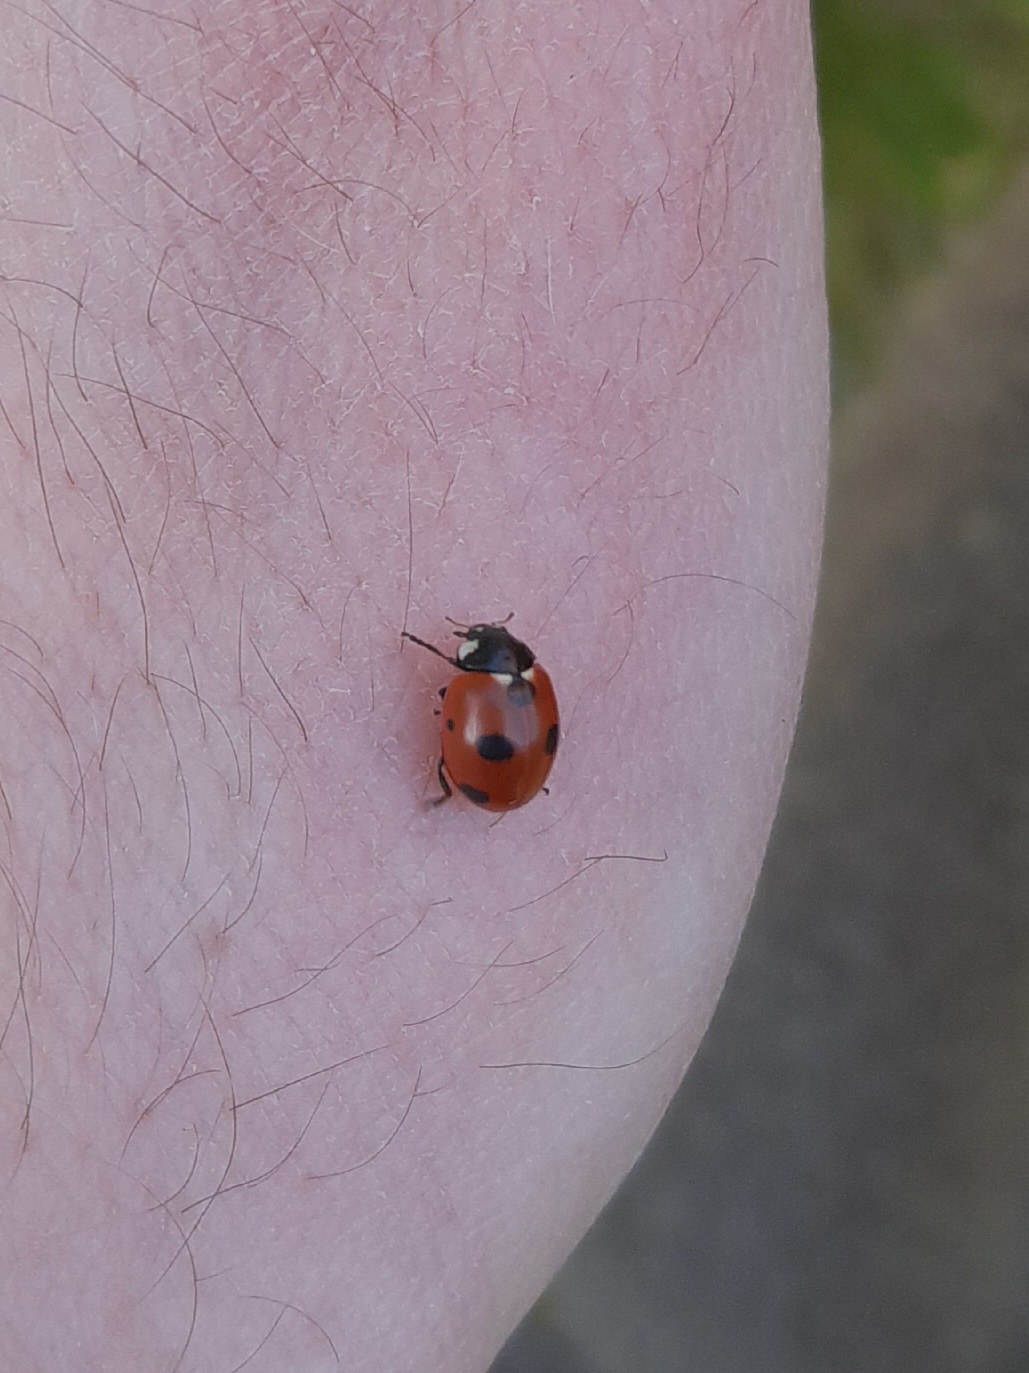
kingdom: Animalia
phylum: Arthropoda
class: Insecta
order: Coleoptera
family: Coccinellidae
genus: Coccinella
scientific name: Coccinella septempunctata
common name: Syvplettet mariehøne
